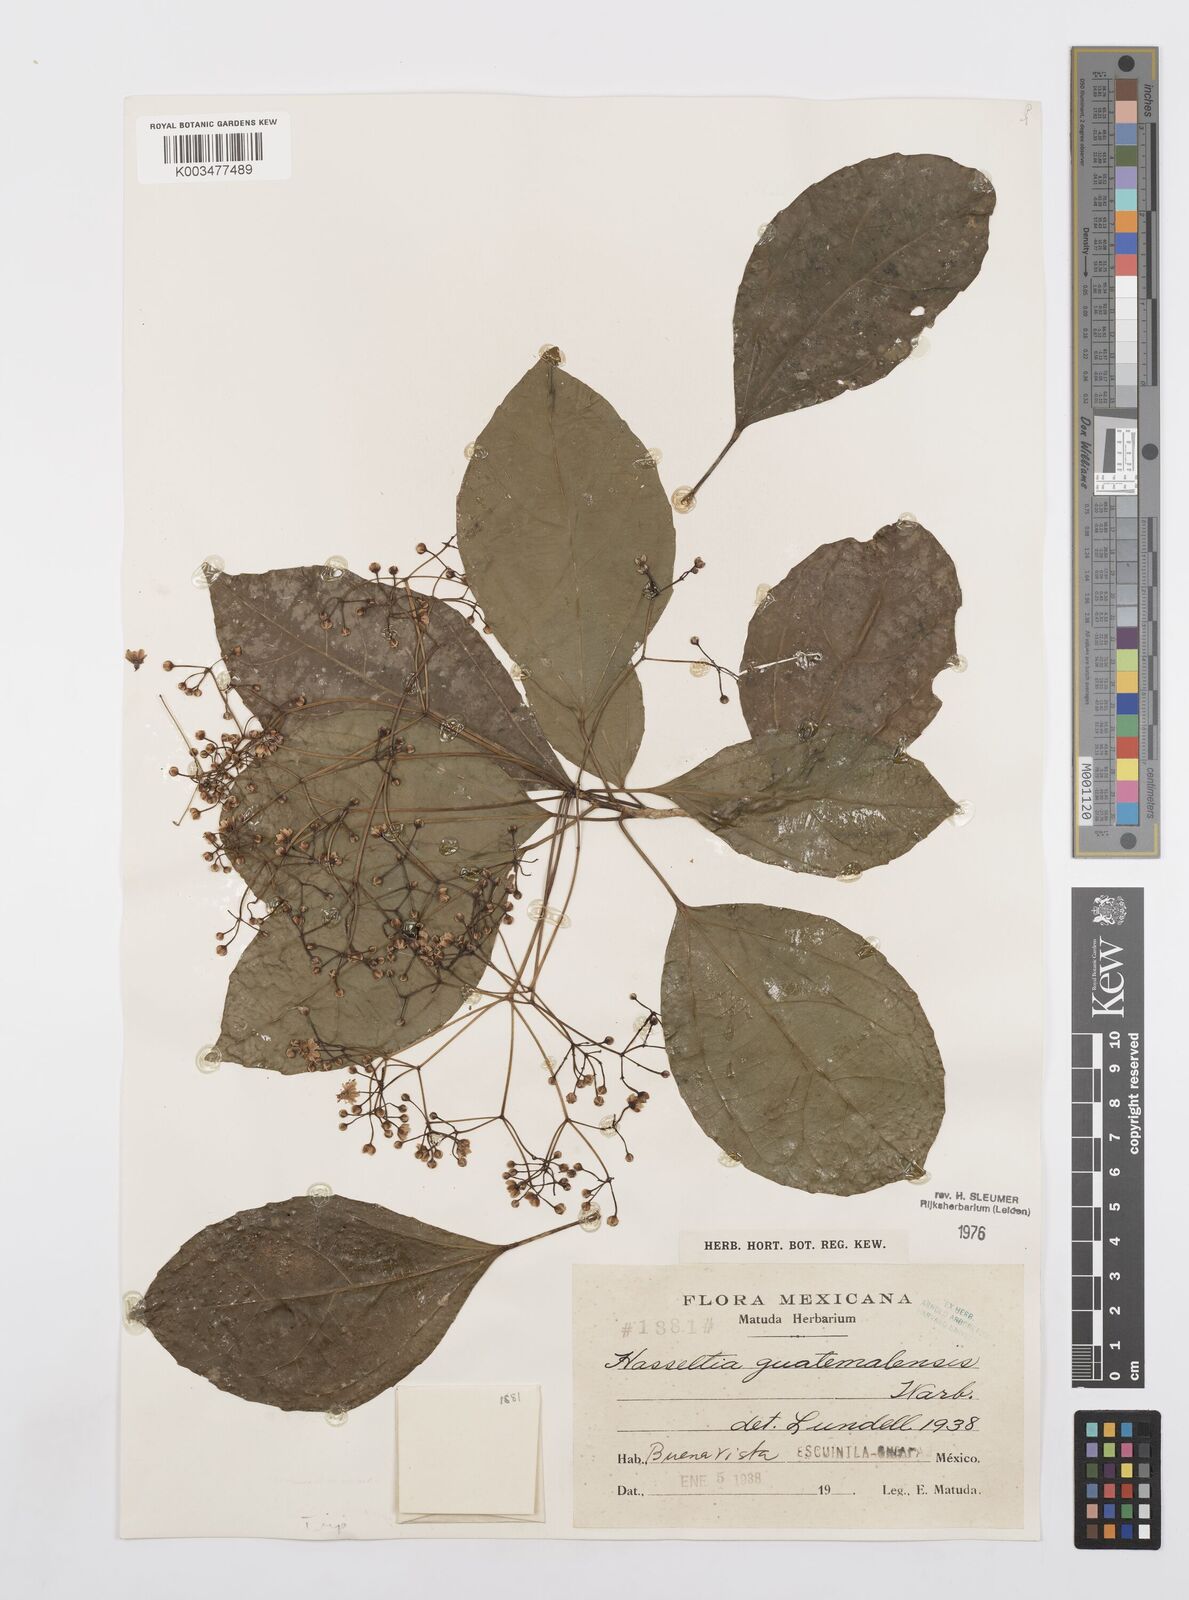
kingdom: Plantae
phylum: Tracheophyta
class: Magnoliopsida
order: Malpighiales
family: Salicaceae
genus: Hasseltia
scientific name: Hasseltia guatemalensis
